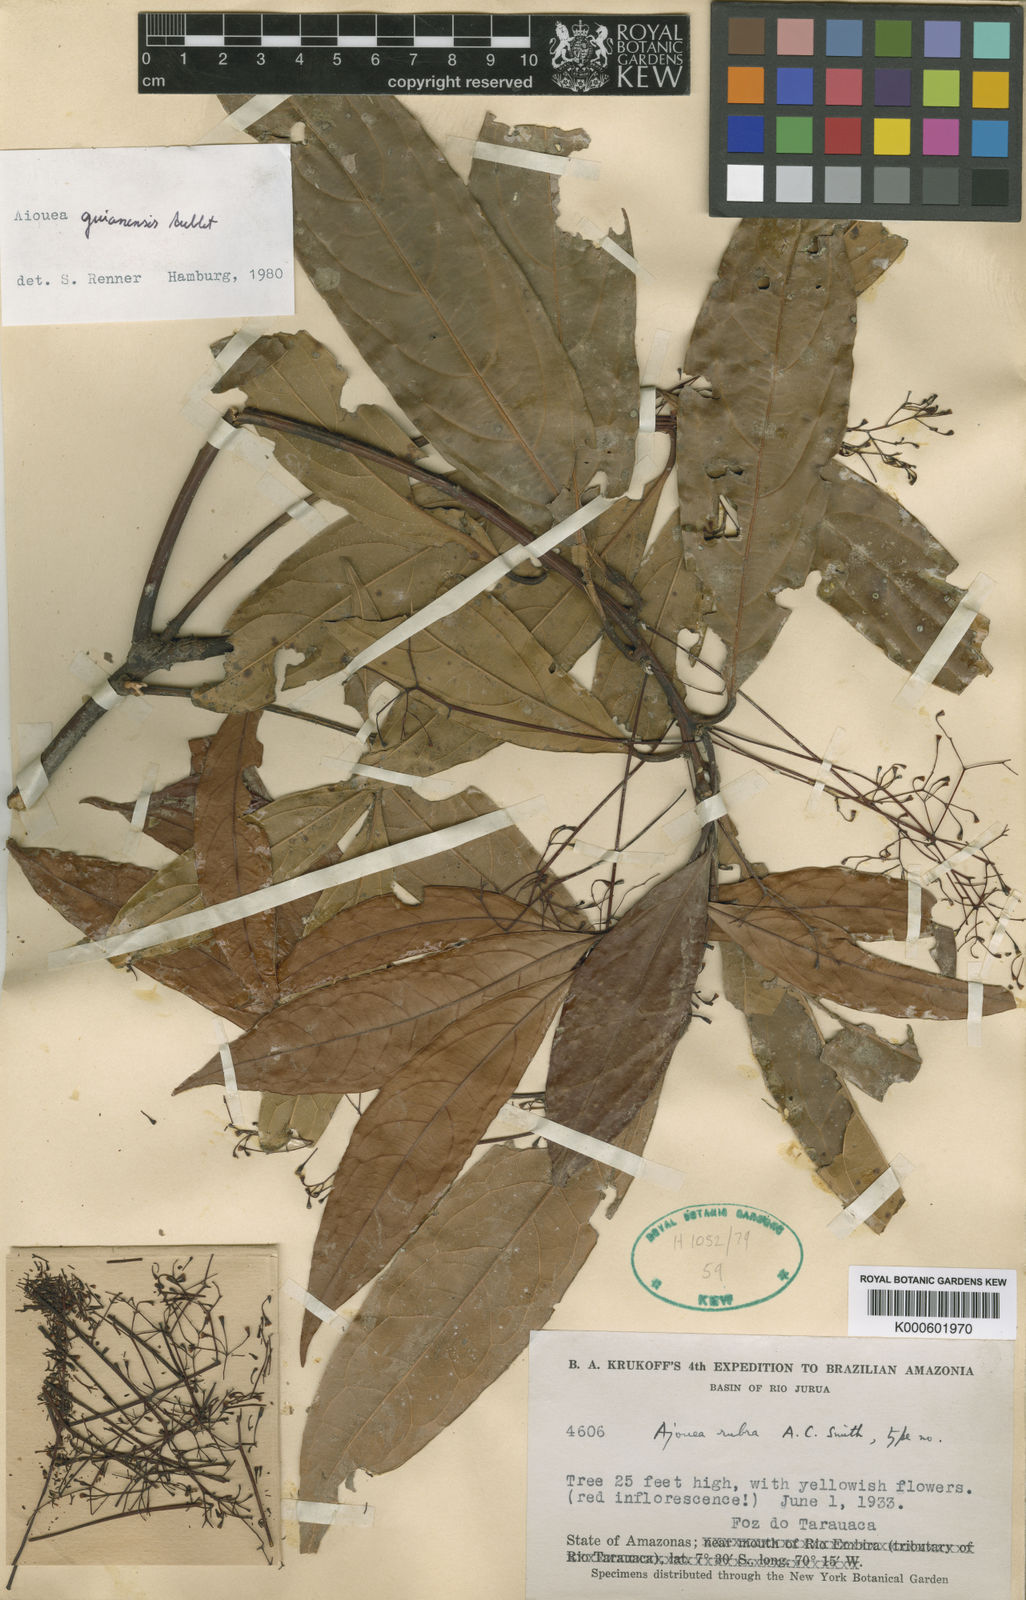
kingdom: Plantae
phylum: Tracheophyta
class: Magnoliopsida
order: Laurales
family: Lauraceae
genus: Aiouea
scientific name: Aiouea guianensis
